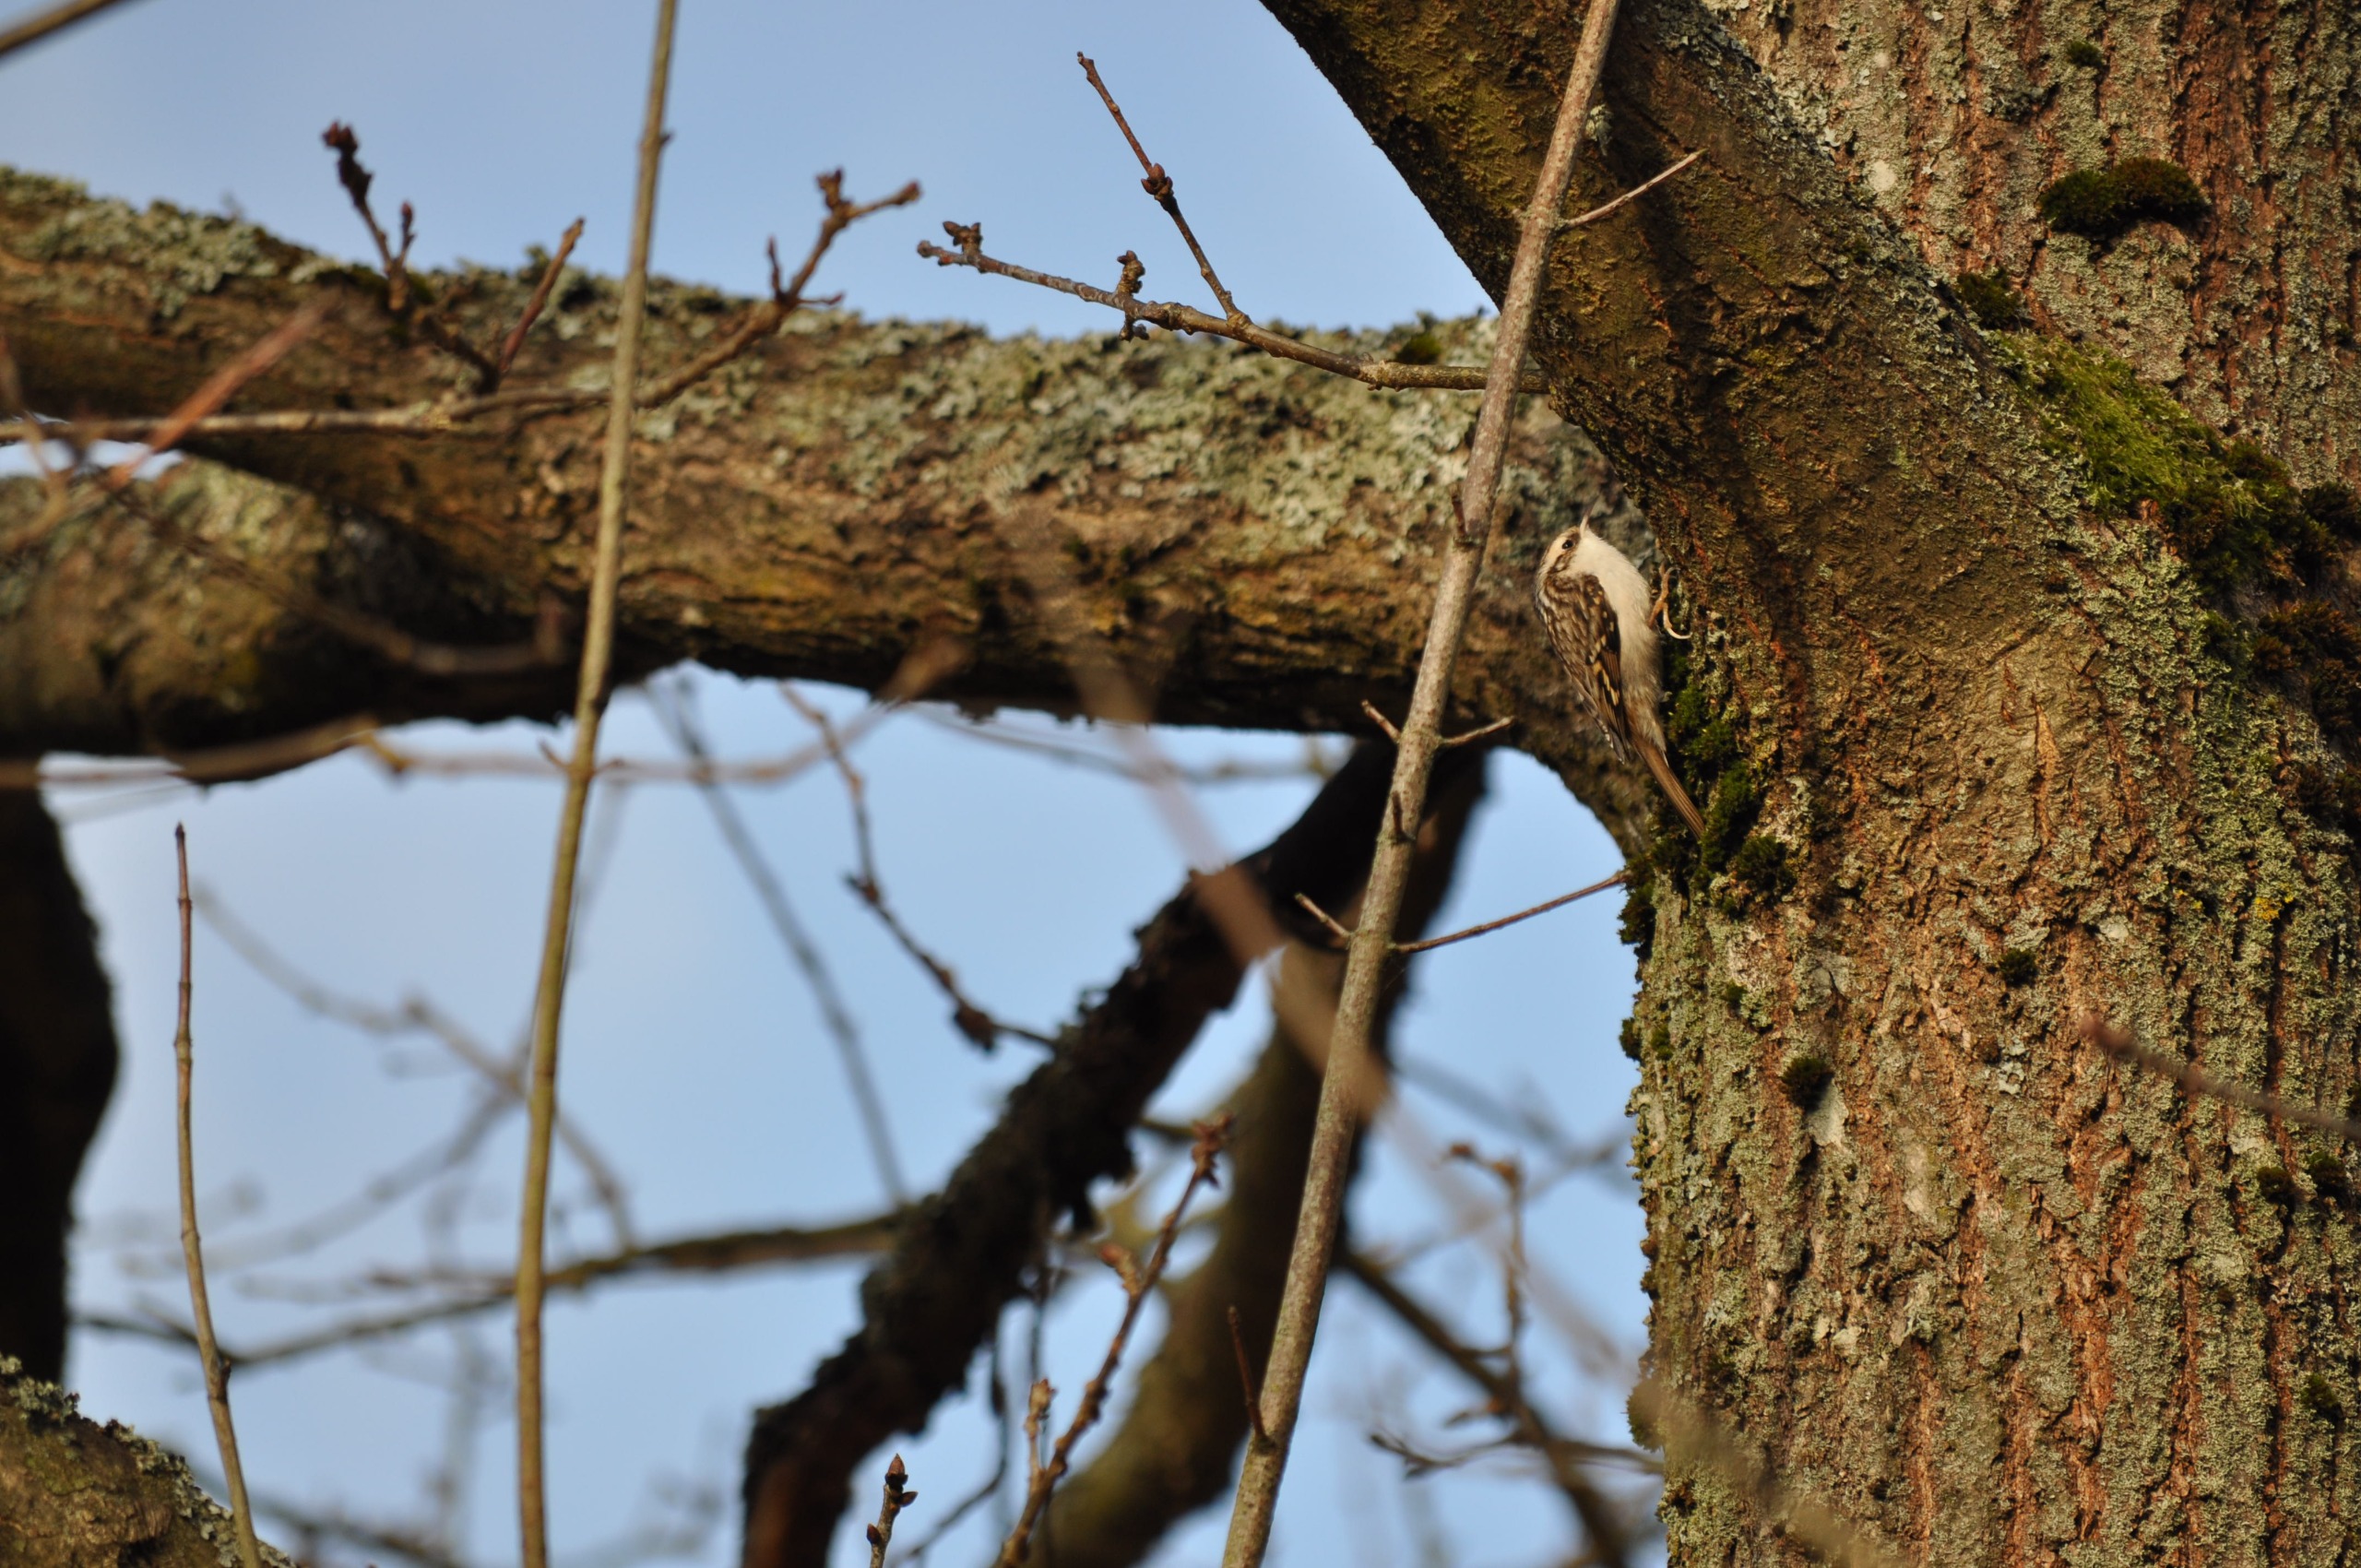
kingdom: Animalia
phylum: Chordata
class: Aves
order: Passeriformes
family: Certhiidae
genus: Certhia
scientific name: Certhia familiaris
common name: Træløber
